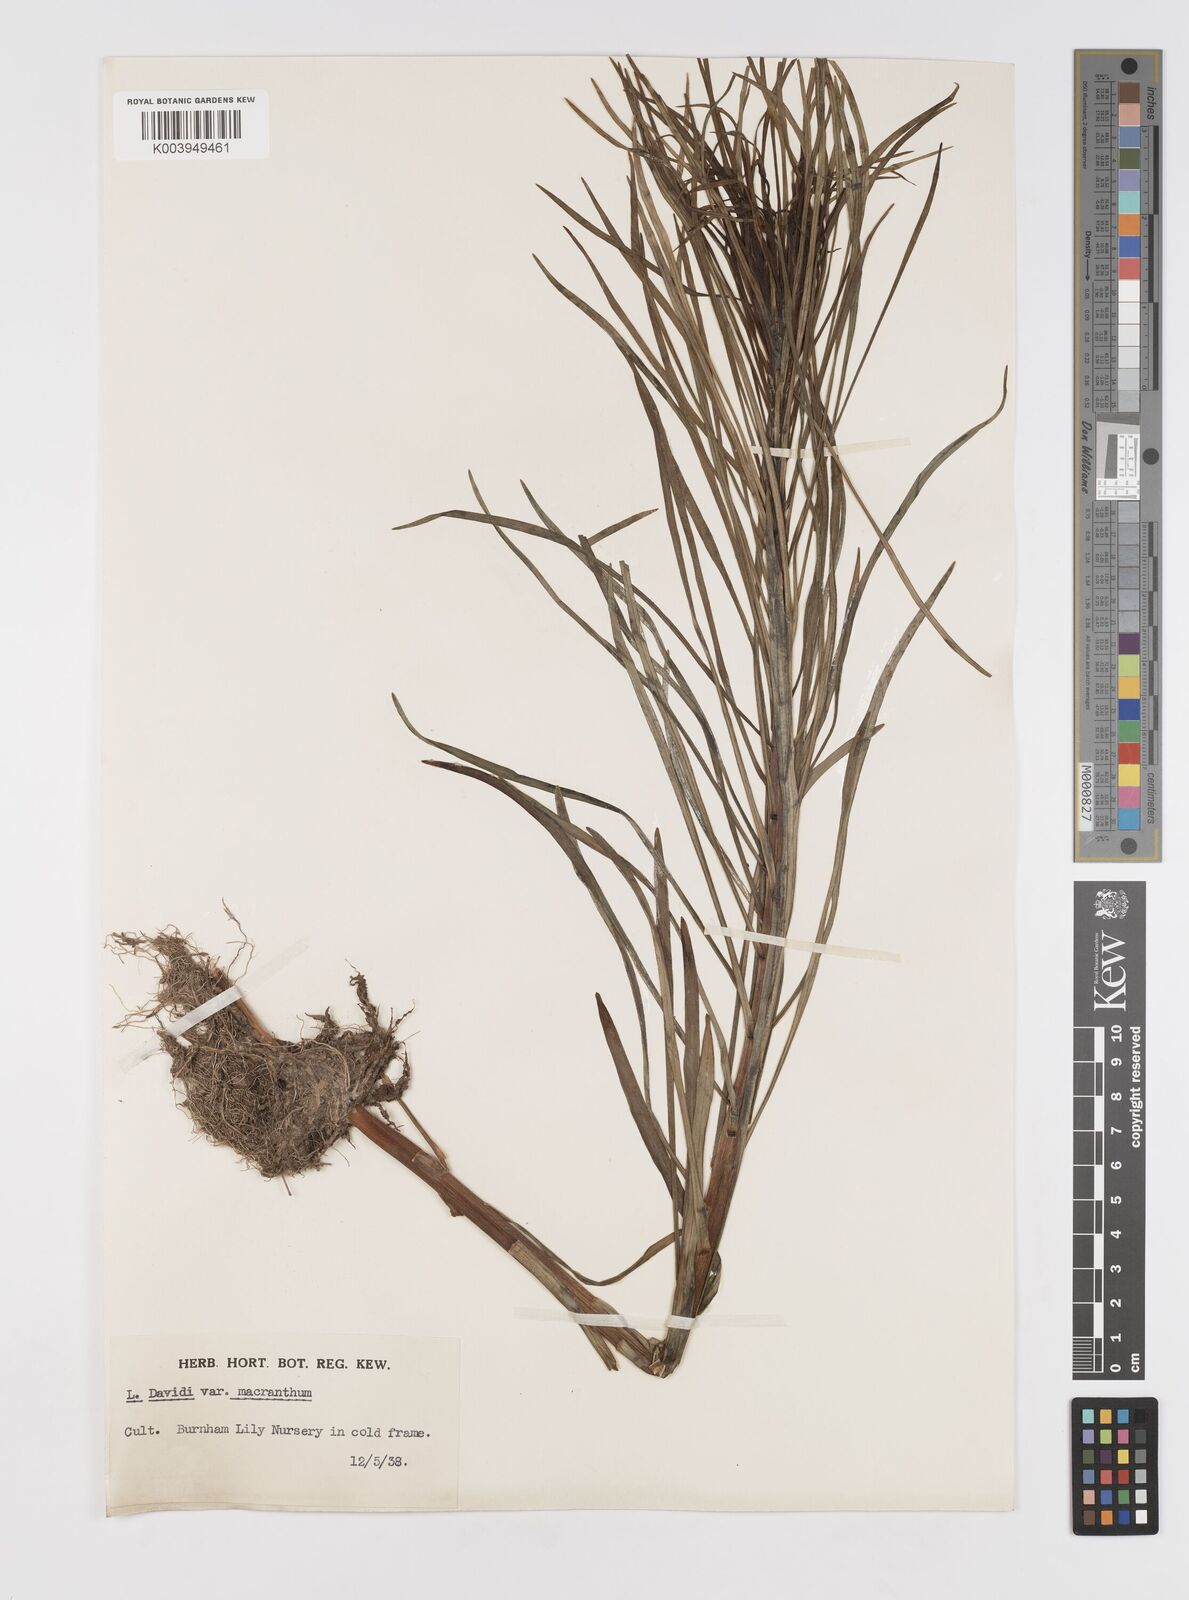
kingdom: Plantae
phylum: Tracheophyta
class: Liliopsida
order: Liliales
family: Liliaceae
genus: Lilium
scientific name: Lilium davidii
